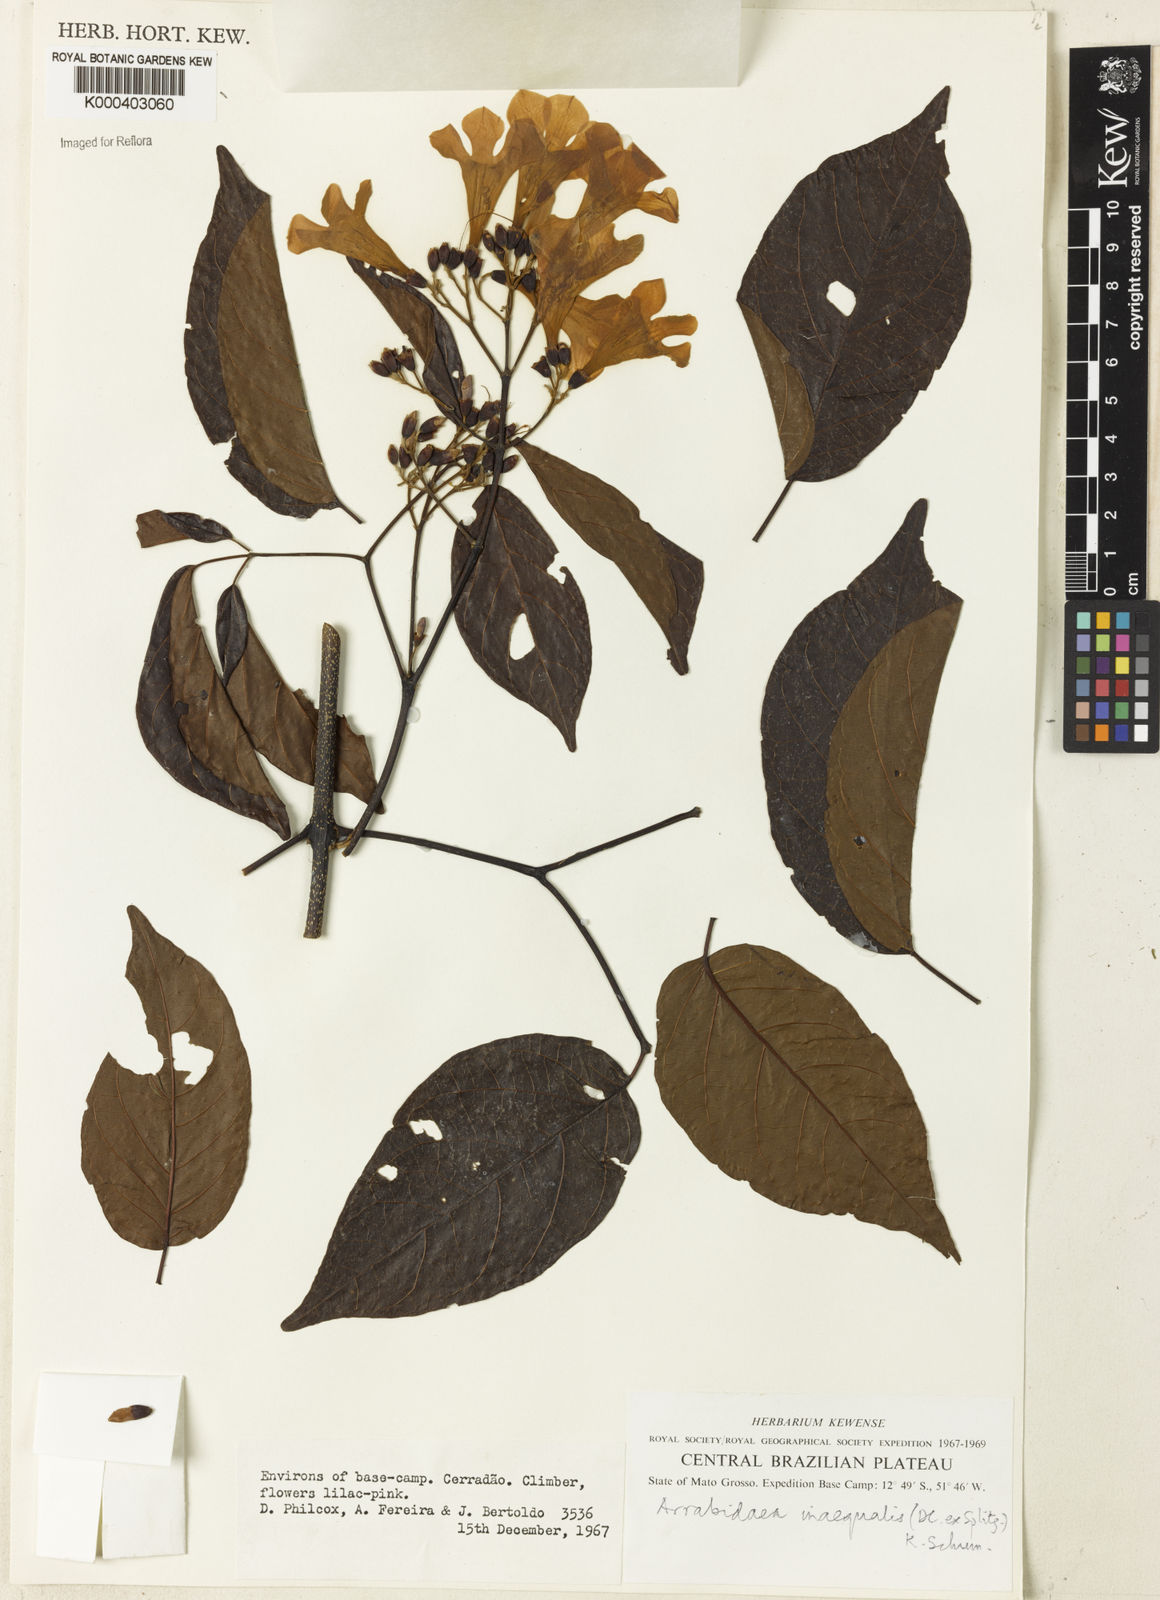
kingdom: Plantae
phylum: Tracheophyta
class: Magnoliopsida
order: Lamiales
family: Bignoniaceae
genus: Cuspidaria
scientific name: Cuspidaria inaequalis
